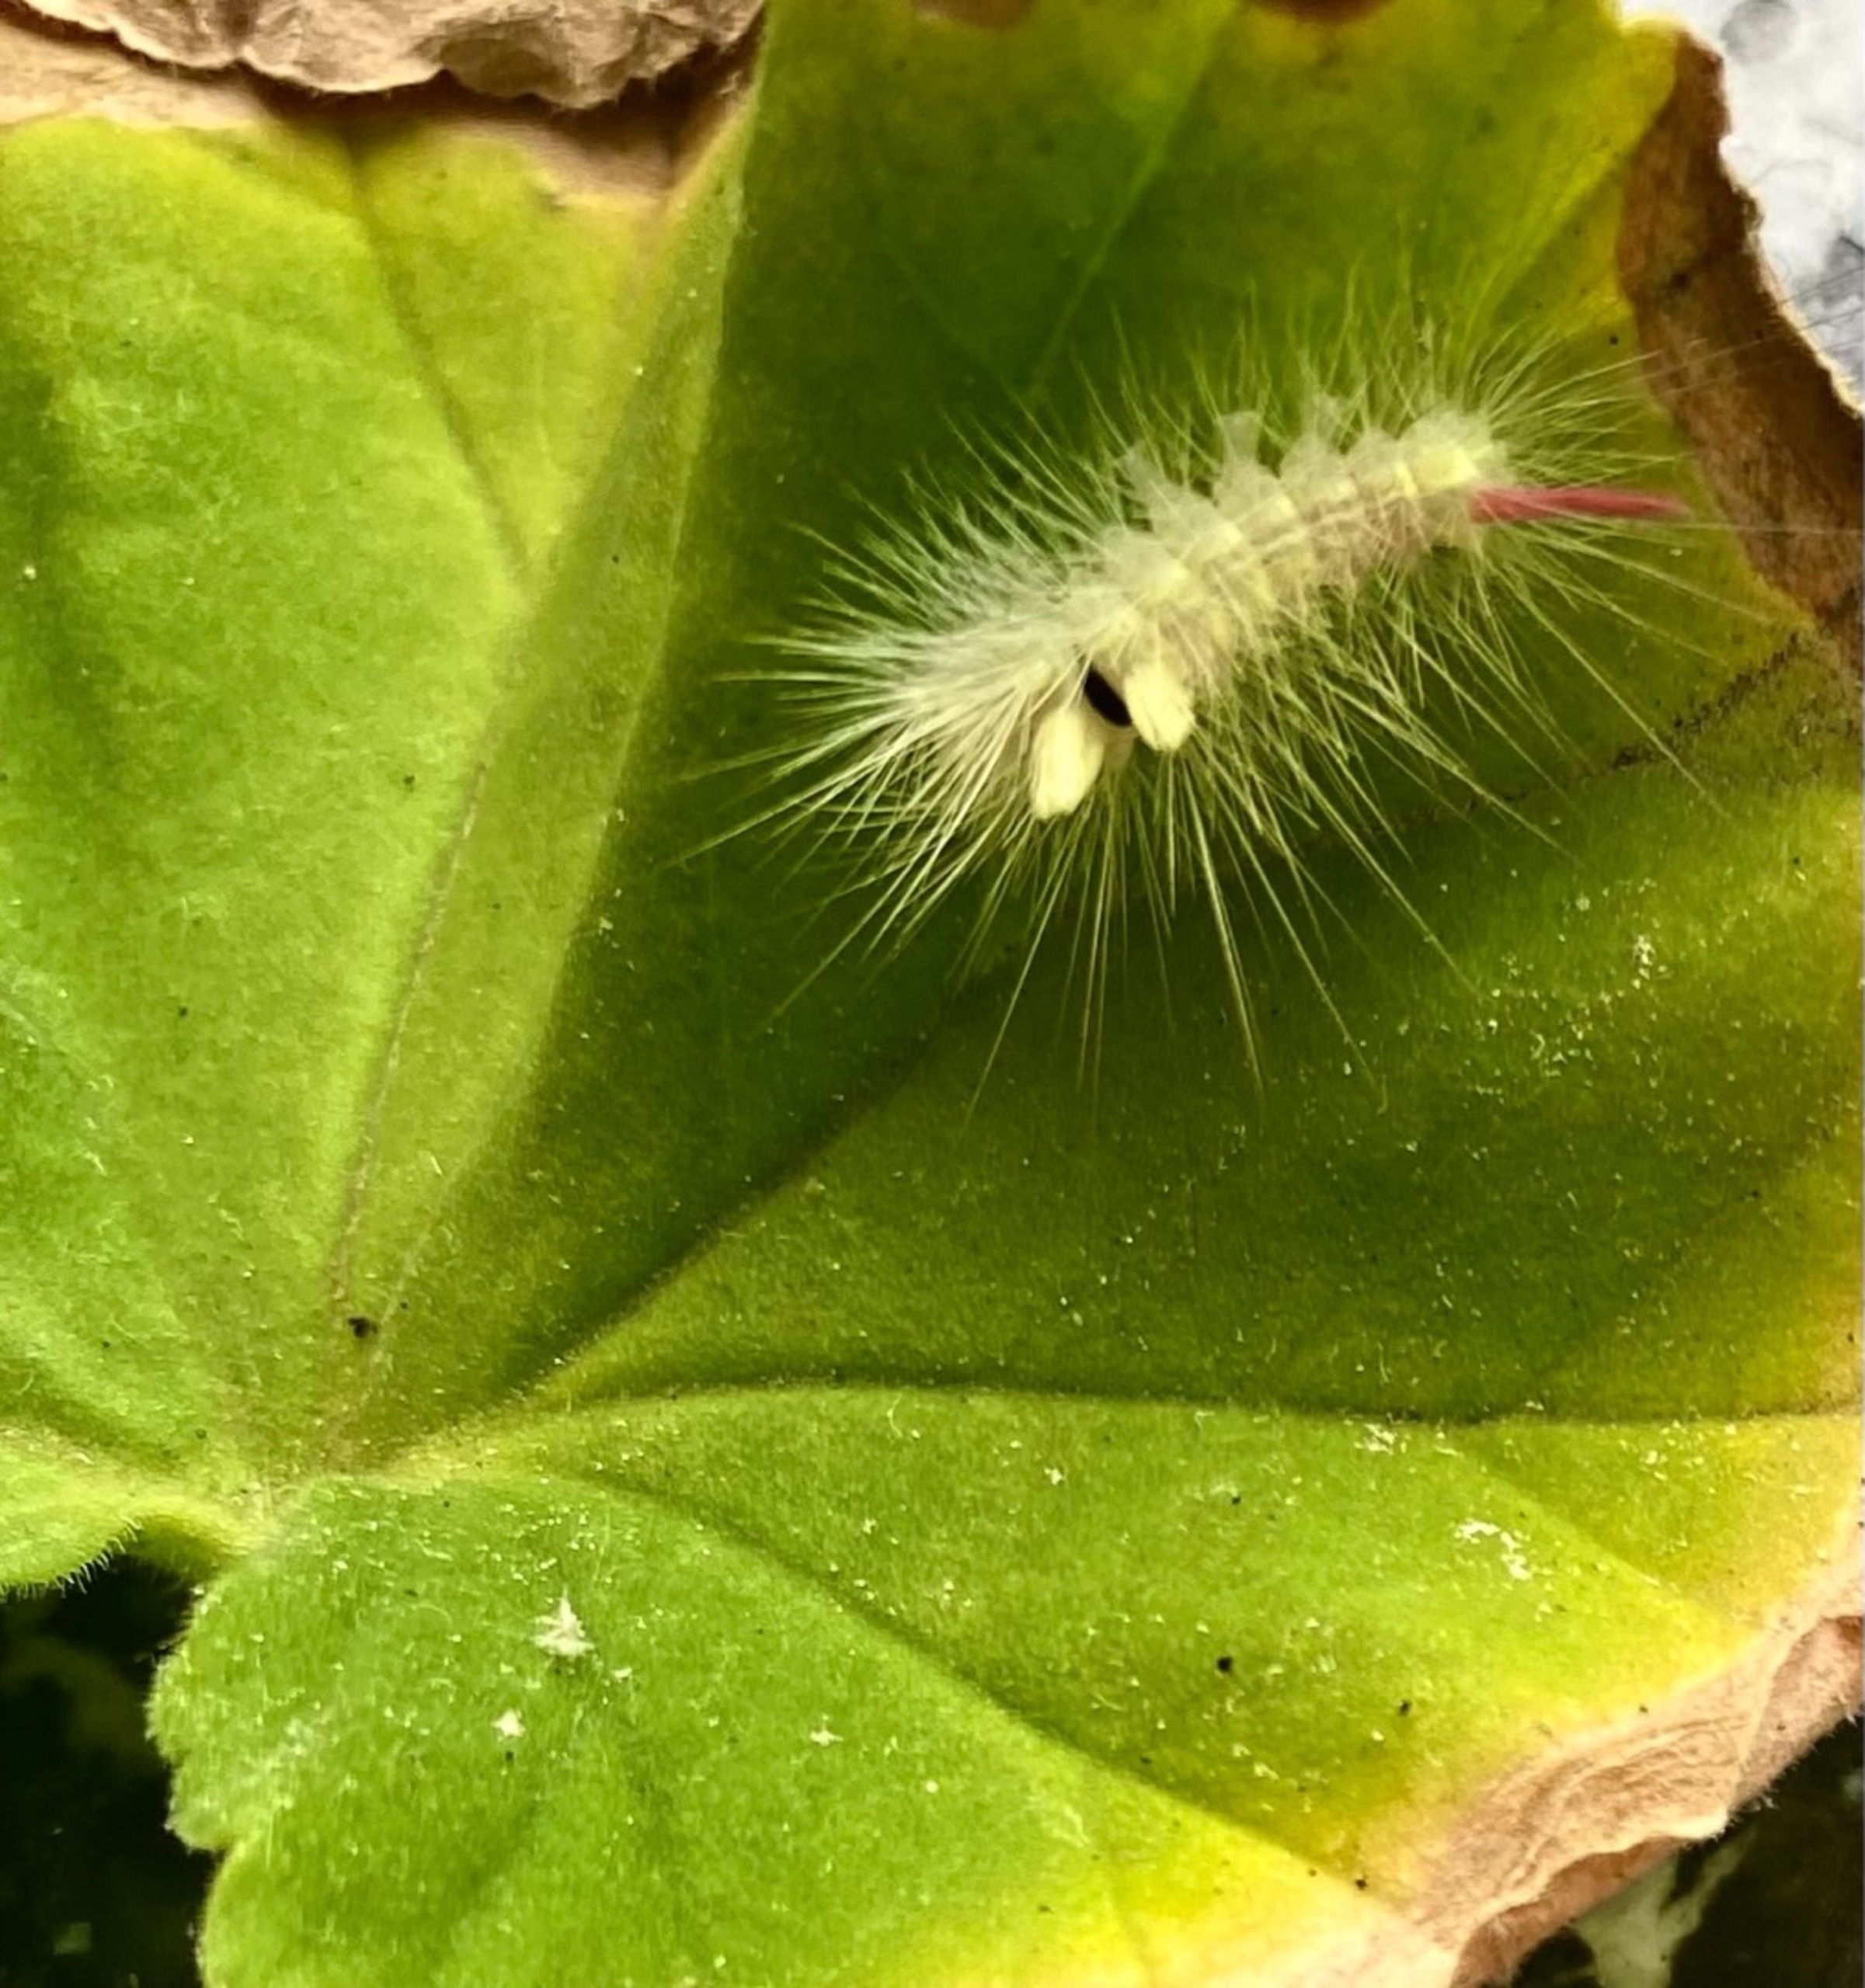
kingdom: Animalia
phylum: Arthropoda
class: Insecta
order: Lepidoptera
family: Erebidae
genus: Calliteara
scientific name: Calliteara pudibunda
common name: Bøgenonne
